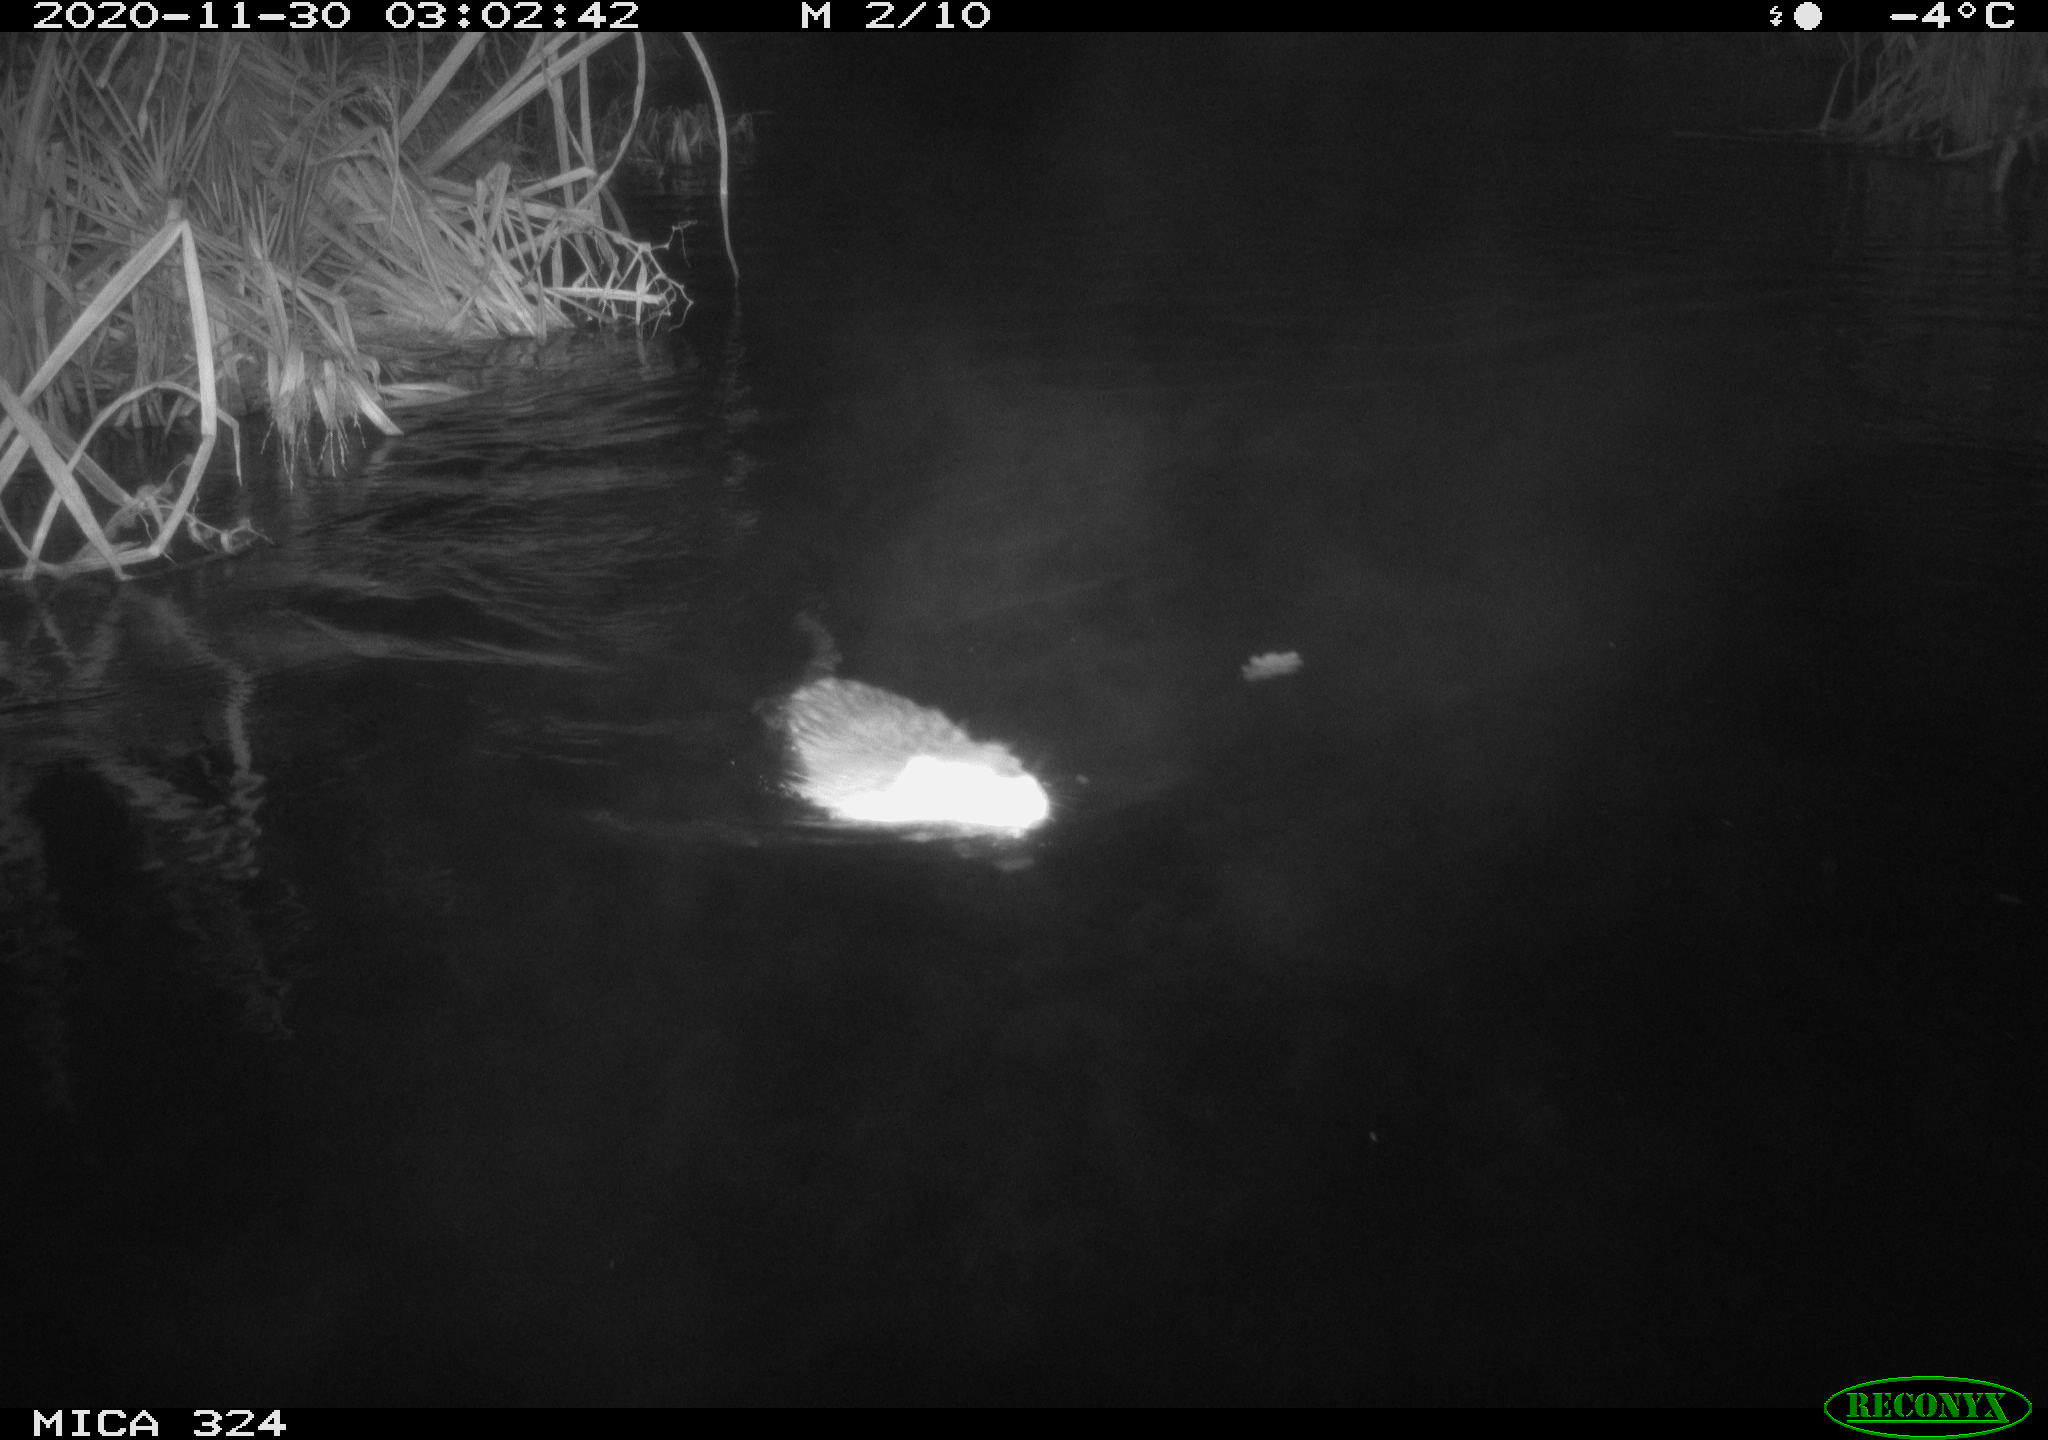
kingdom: Animalia
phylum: Chordata
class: Mammalia
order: Rodentia
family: Myocastoridae
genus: Myocastor
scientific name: Myocastor coypus
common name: Coypu
